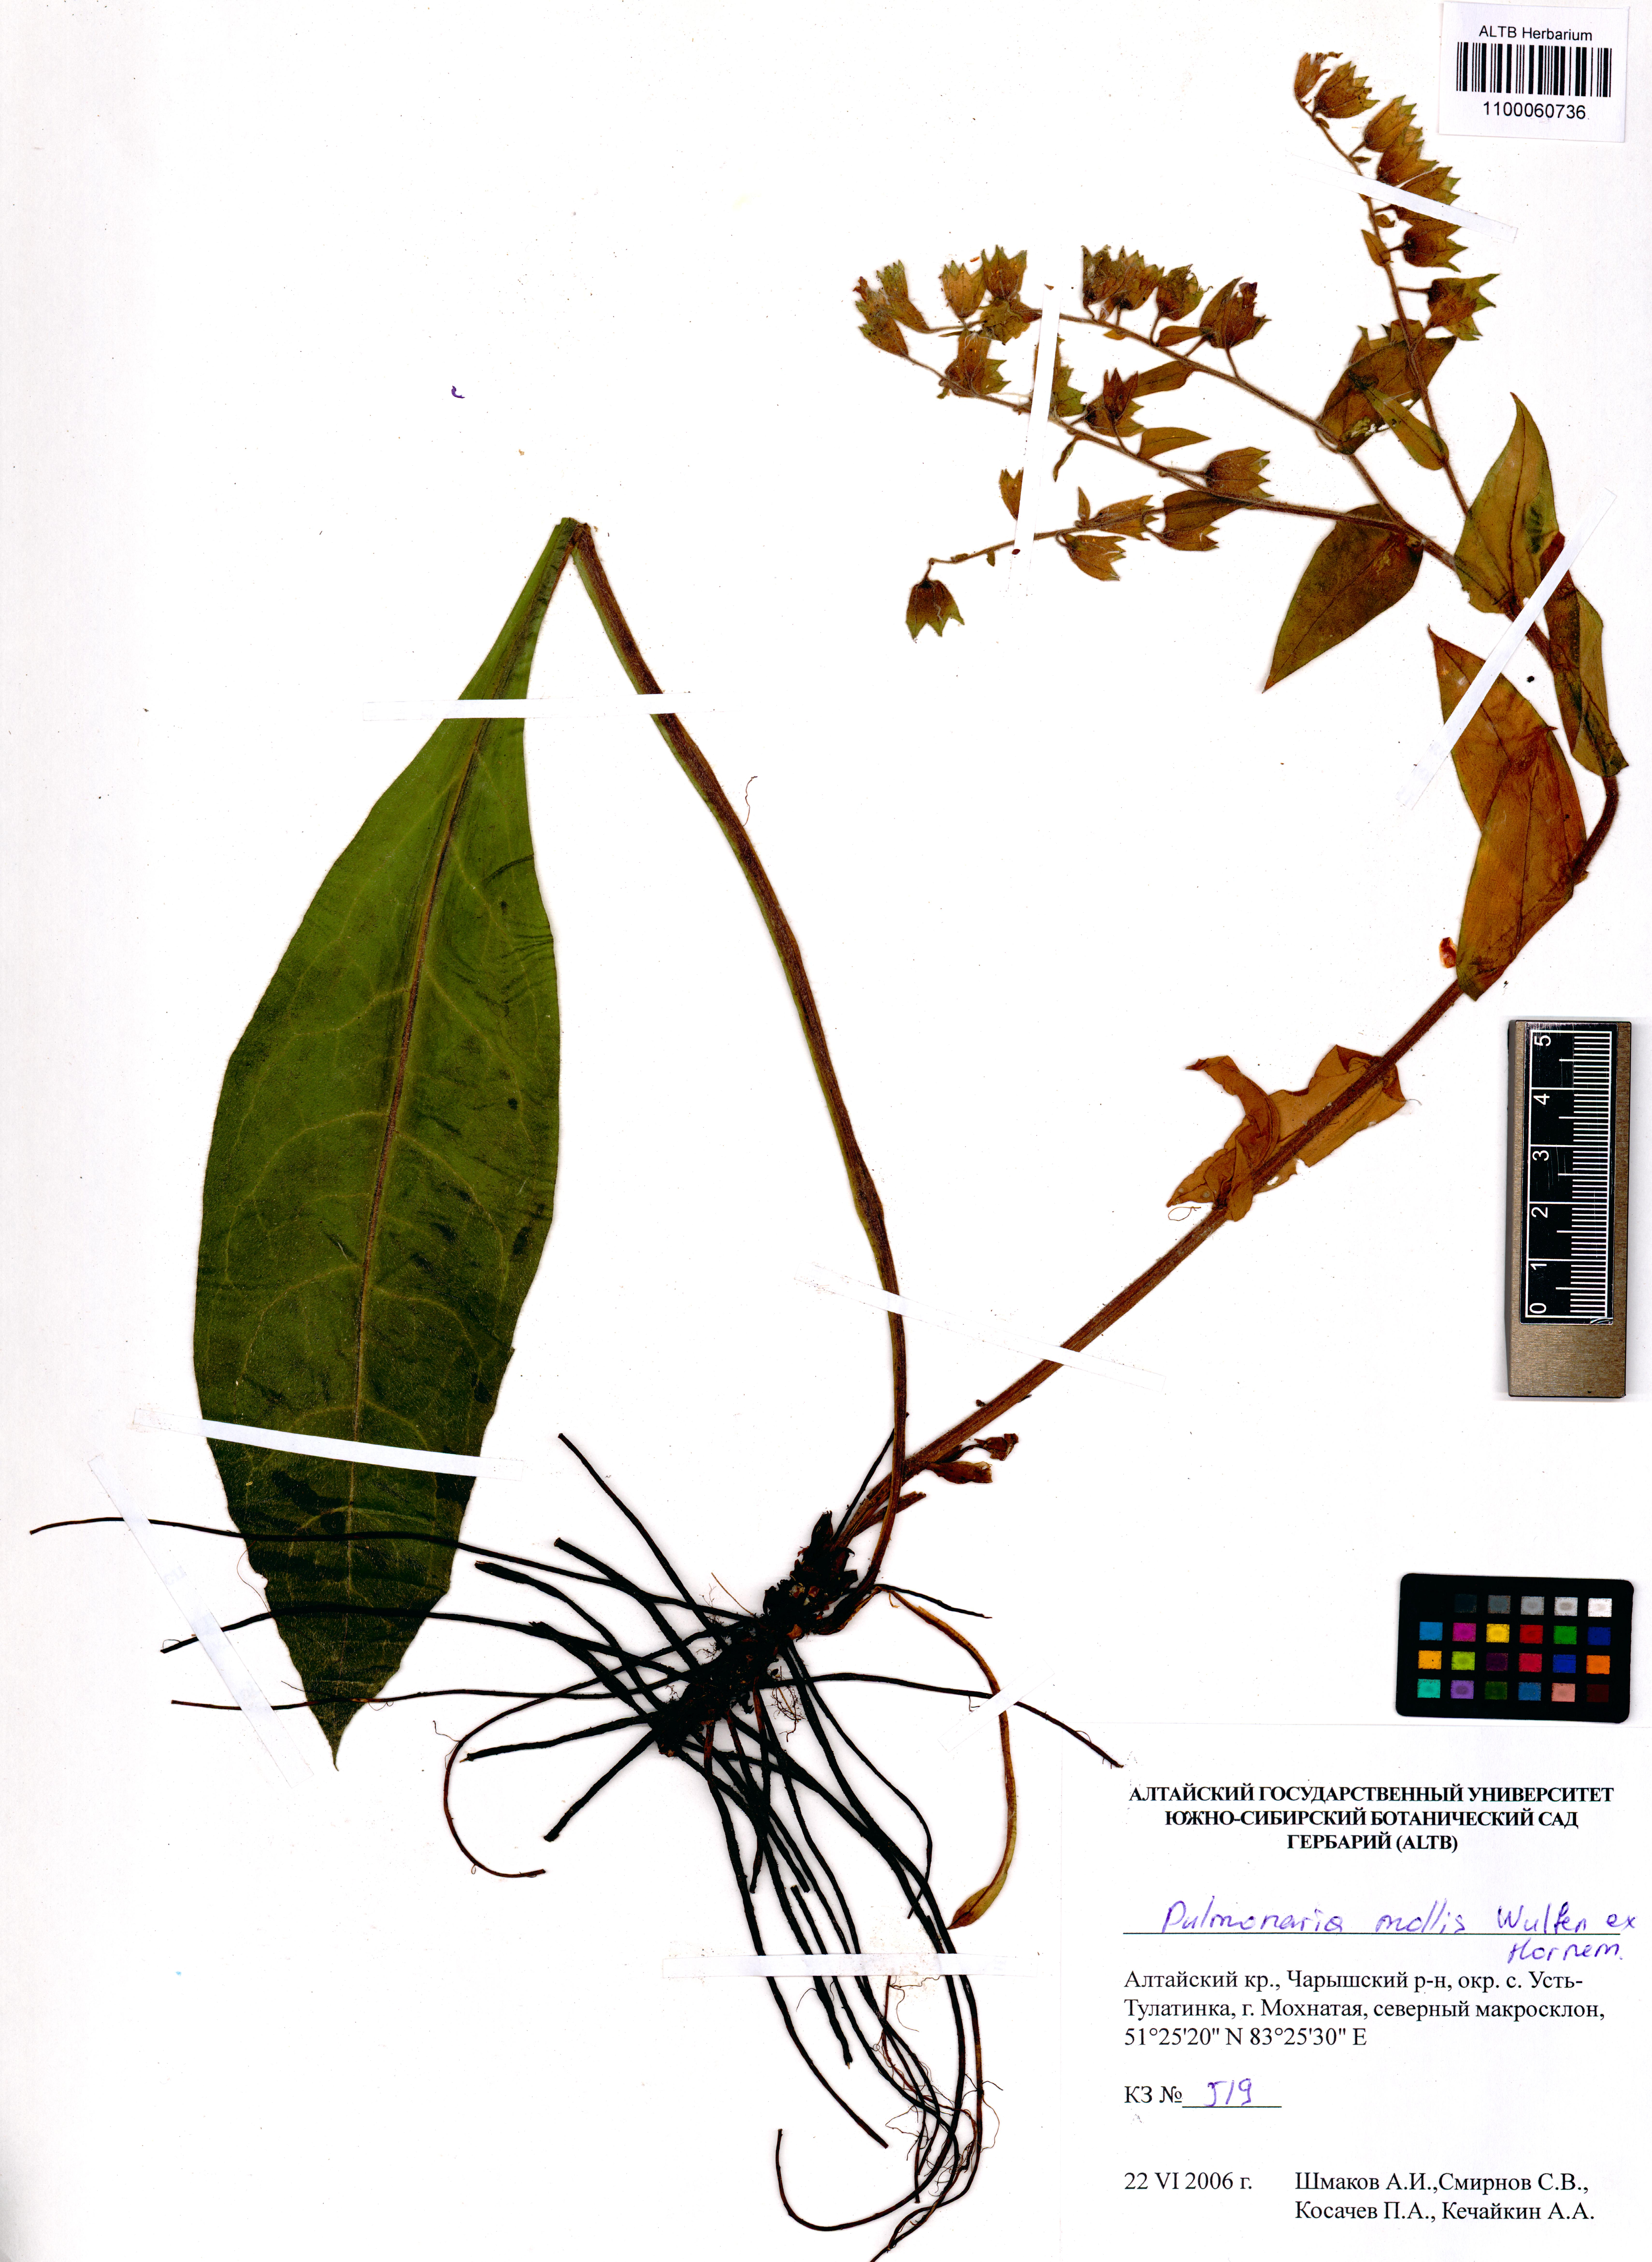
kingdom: Plantae
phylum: Tracheophyta
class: Magnoliopsida
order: Boraginales
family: Boraginaceae
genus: Pulmonaria
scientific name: Pulmonaria mollis
